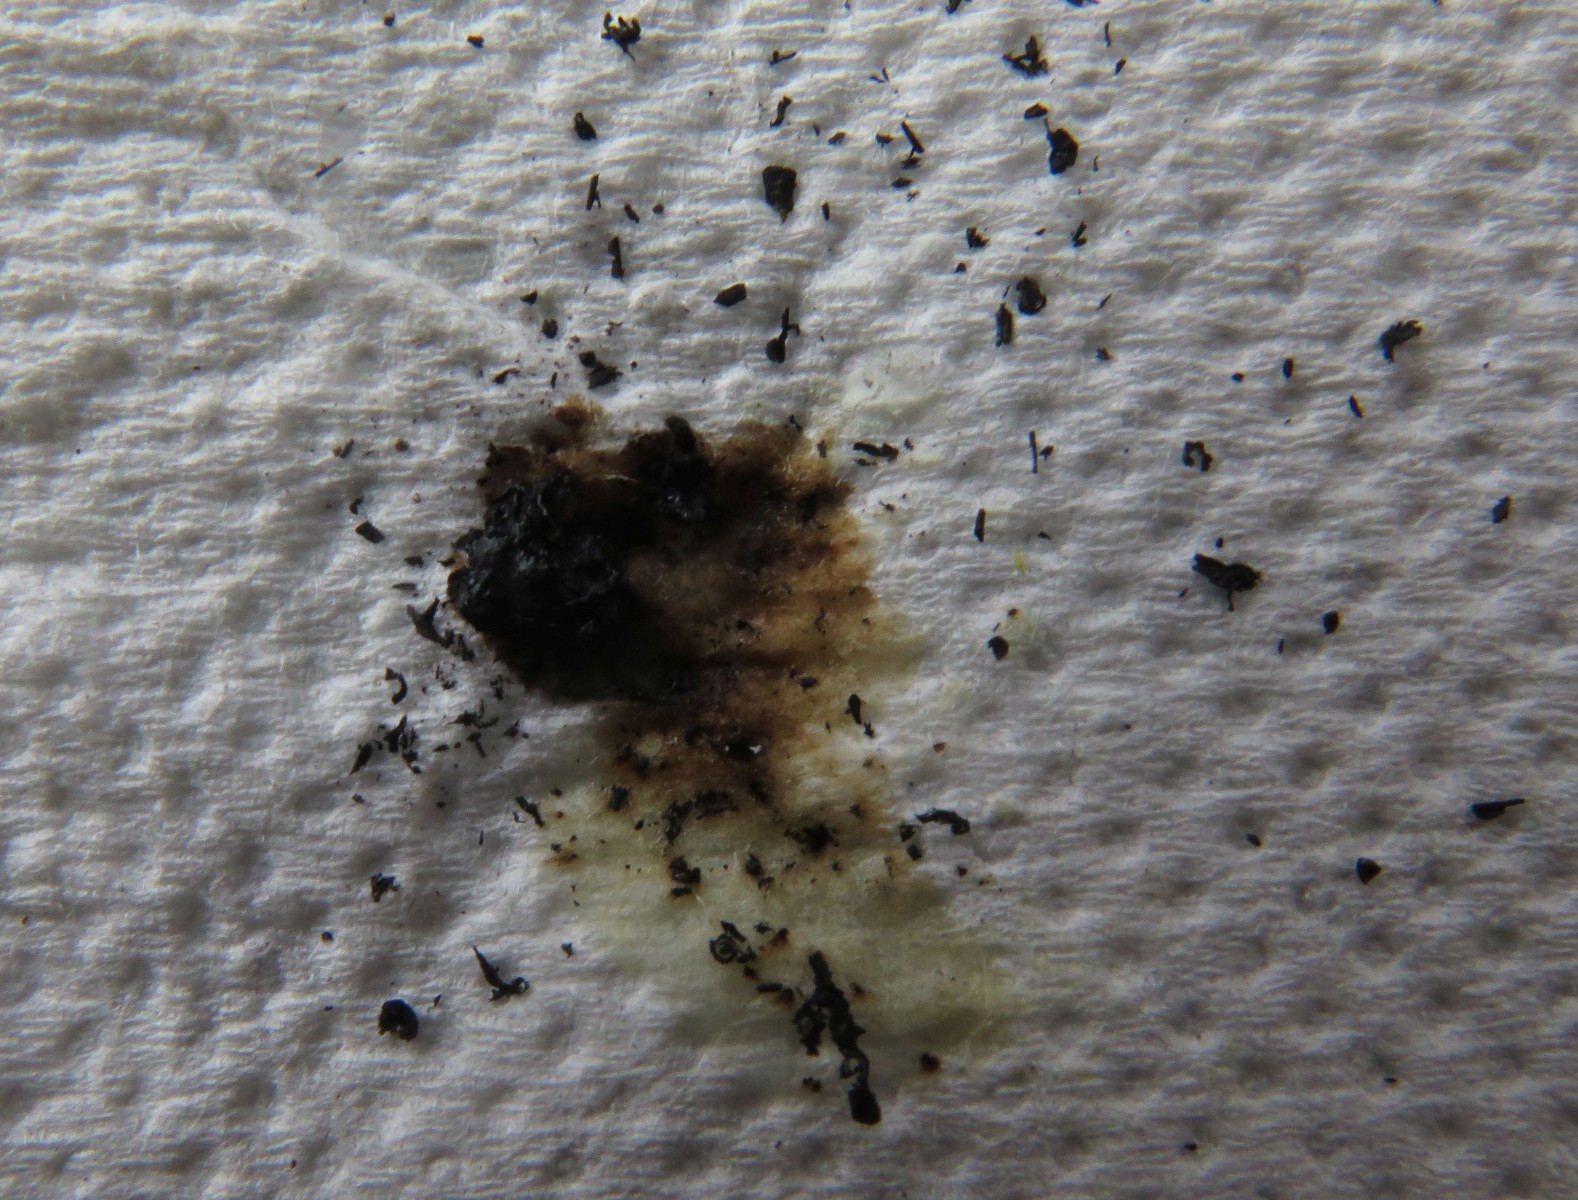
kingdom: Fungi
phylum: Ascomycota
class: Sordariomycetes
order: Xylariales
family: Hypoxylaceae
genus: Jackrogersella
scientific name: Jackrogersella multiformis
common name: foranderlig kulbær
